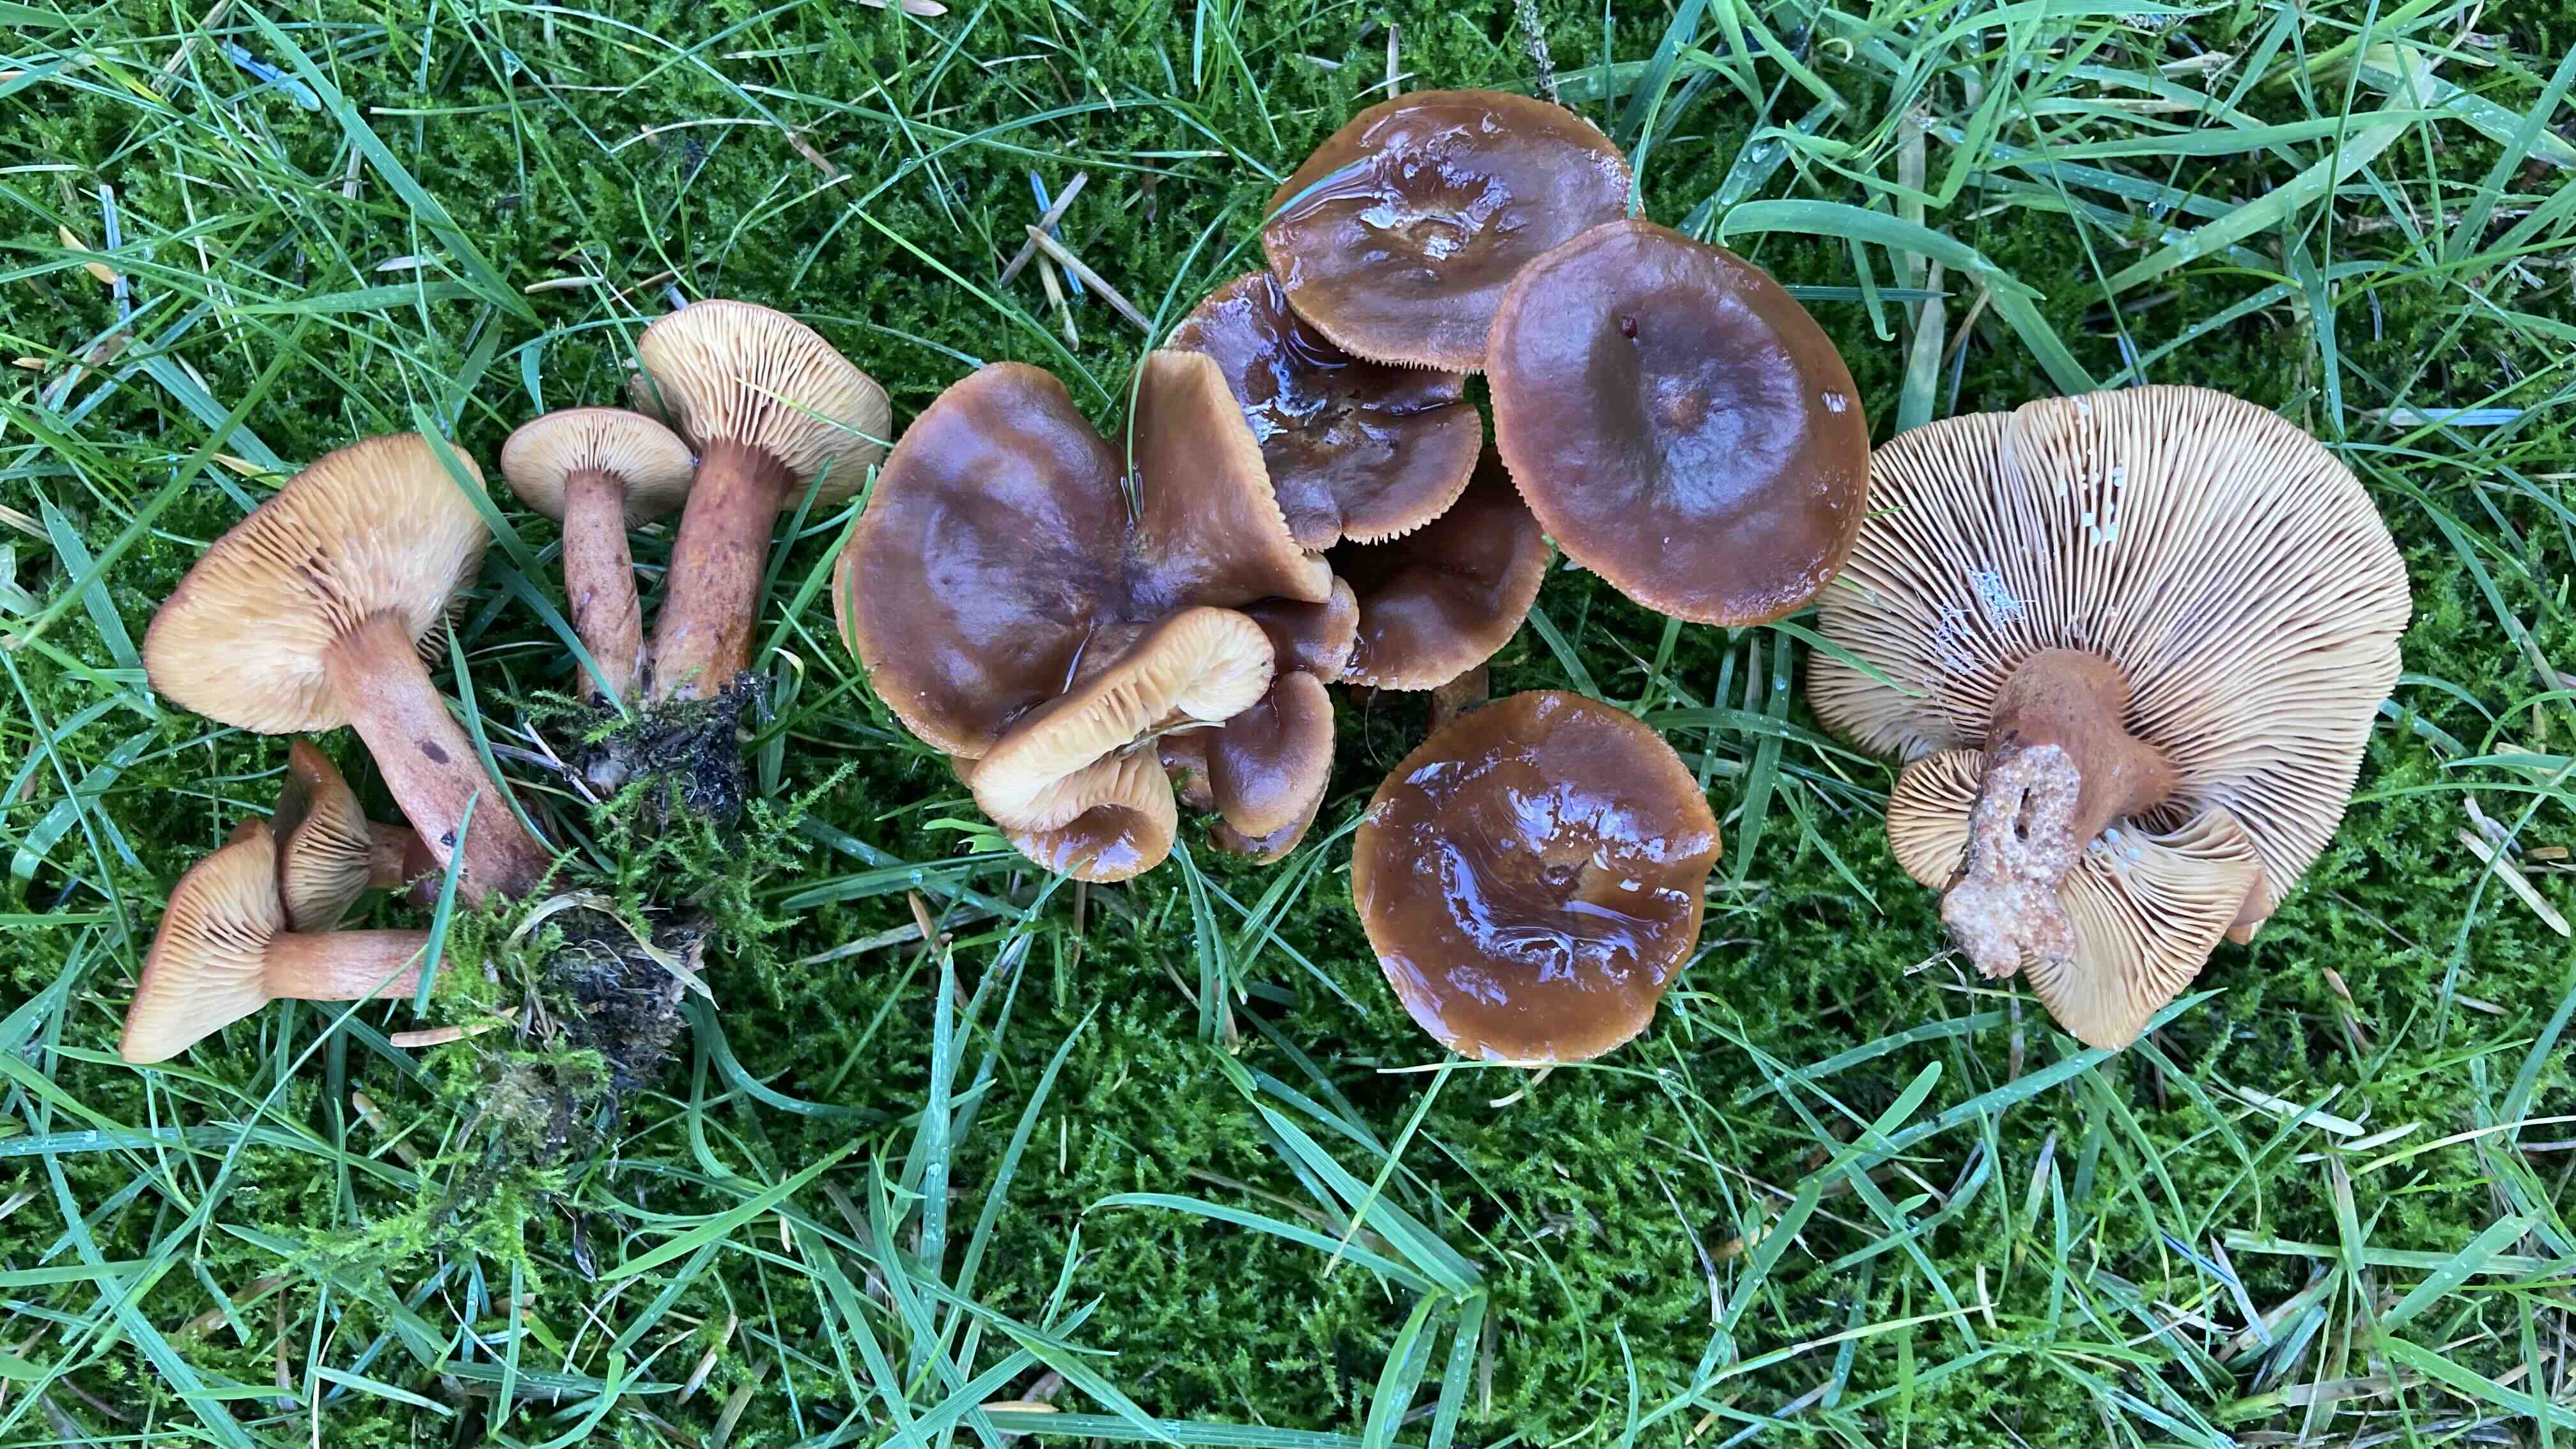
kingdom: Fungi
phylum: Basidiomycota
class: Agaricomycetes
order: Russulales
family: Russulaceae
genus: Lactarius
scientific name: Lactarius hepaticus
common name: leverbrun mælkehat
